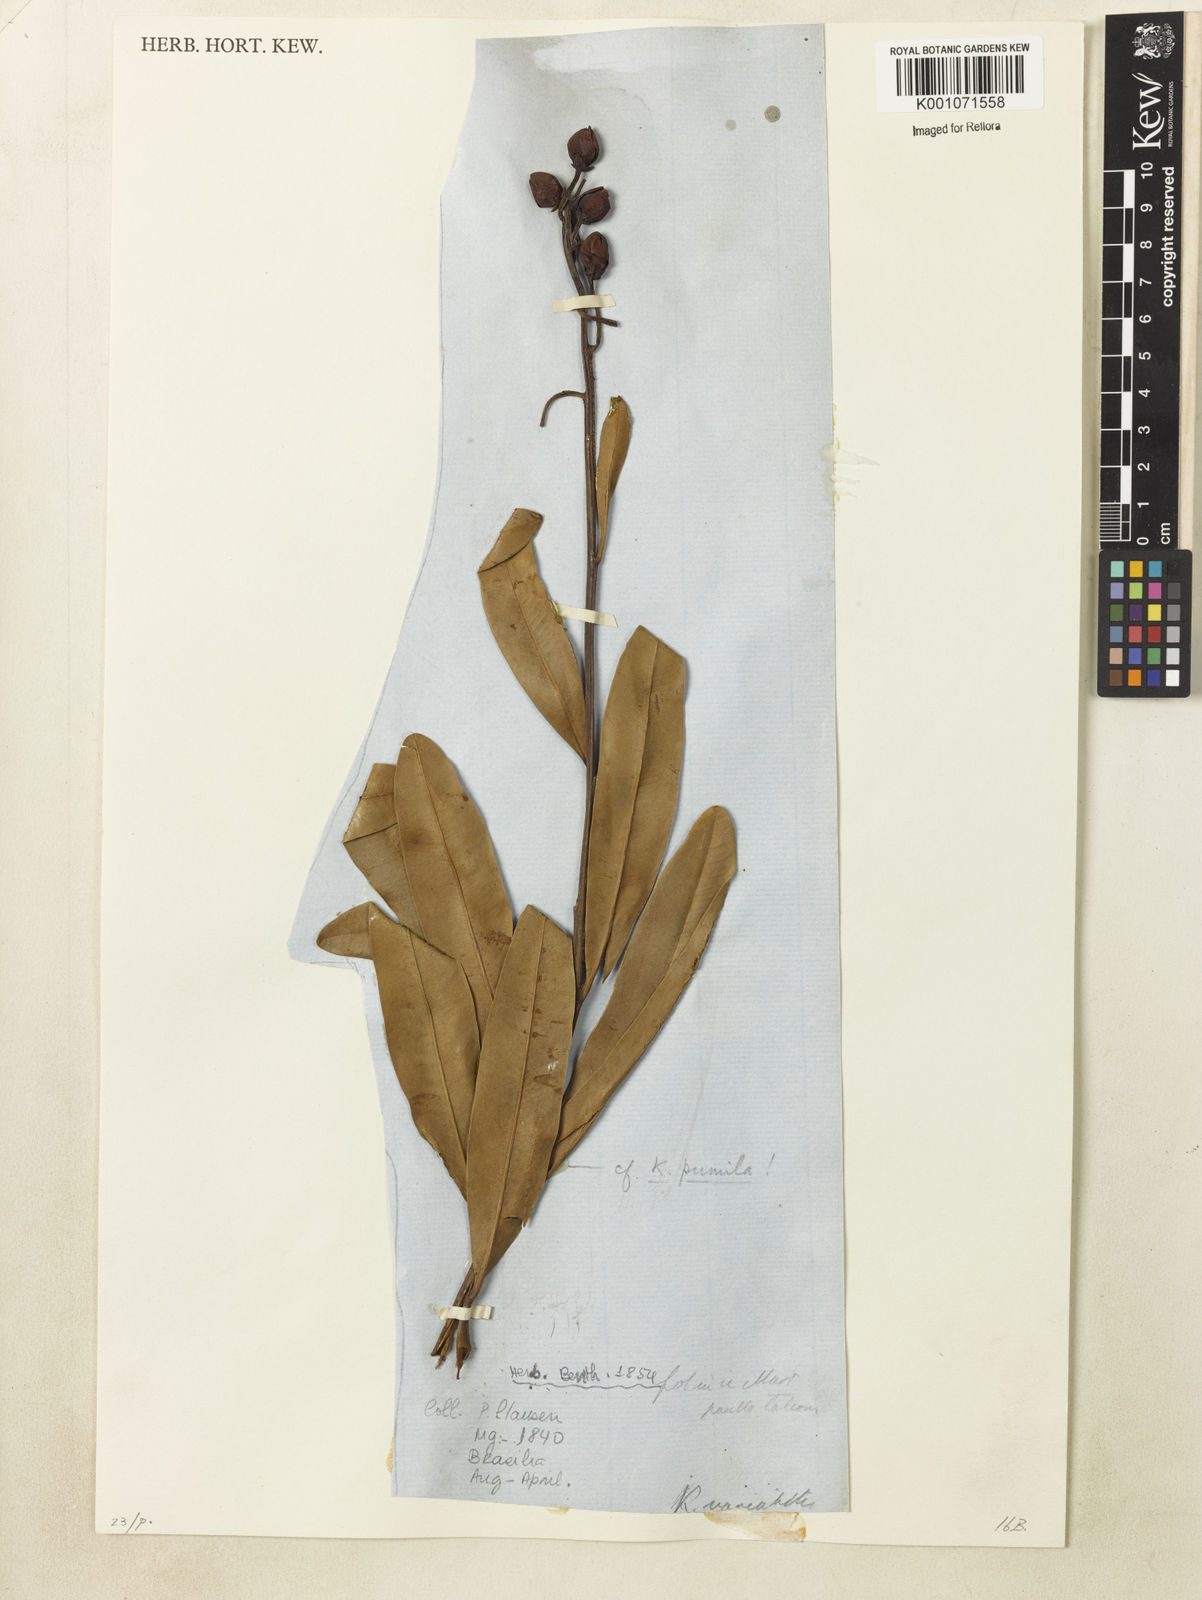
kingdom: Plantae
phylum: Tracheophyta
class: Magnoliopsida
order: Malpighiales
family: Calophyllaceae
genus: Kielmeyera
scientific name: Kielmeyera pumila
